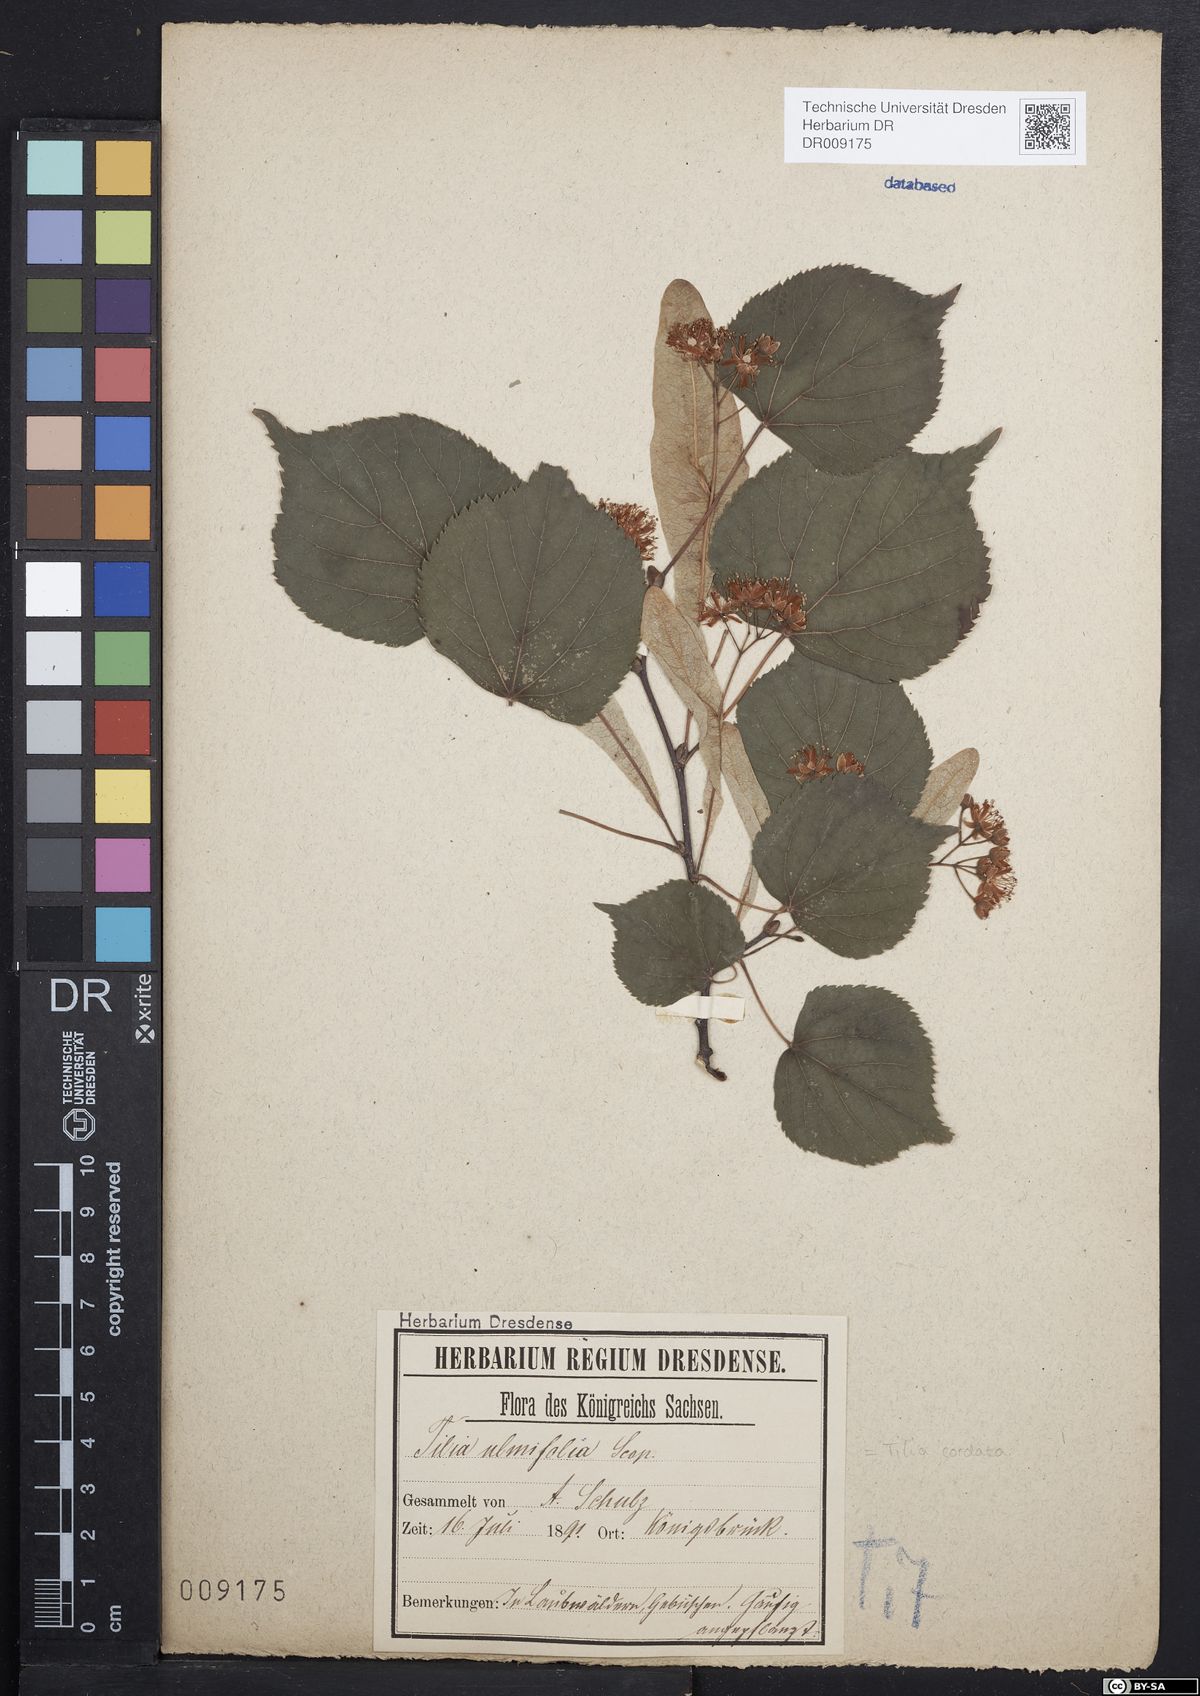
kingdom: Plantae
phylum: Tracheophyta
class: Magnoliopsida
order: Malvales
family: Malvaceae
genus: Tilia
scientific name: Tilia cordata
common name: Small-leaved lime
